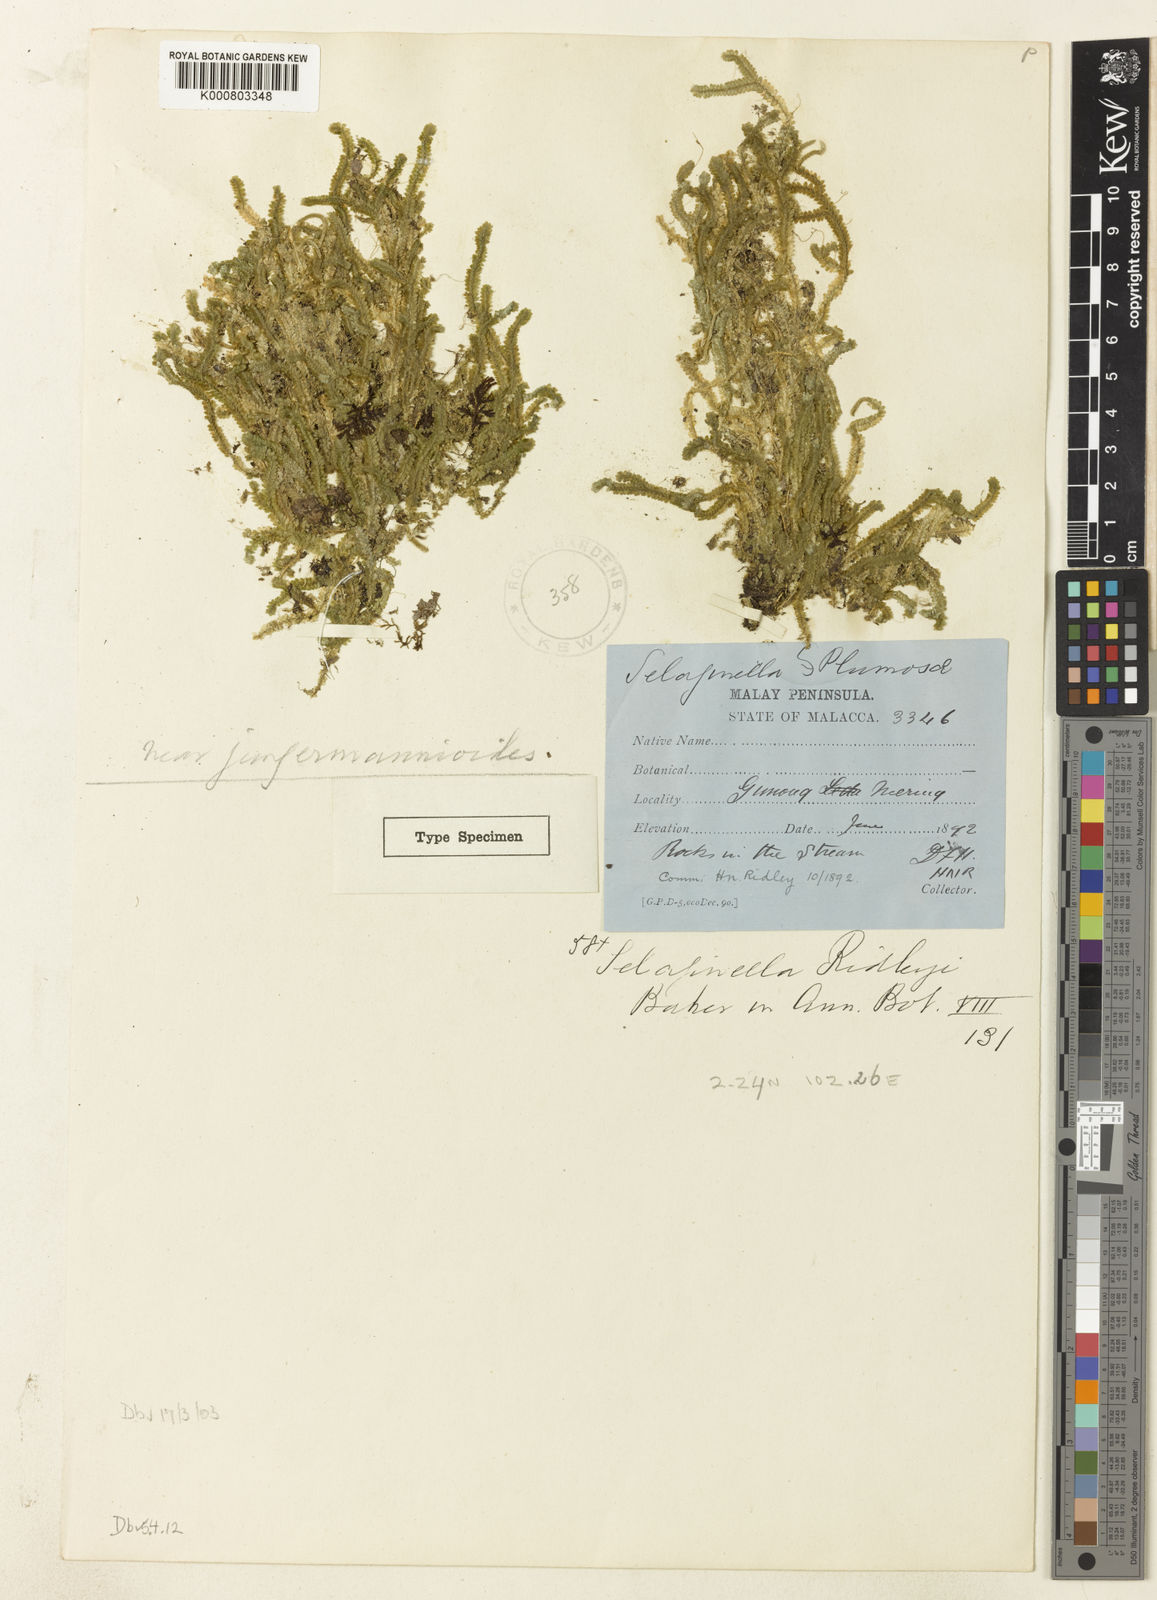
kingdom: Plantae
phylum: Tracheophyta
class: Lycopodiopsida
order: Selaginellales
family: Selaginellaceae
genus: Selaginella
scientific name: Selaginella ridleyi
